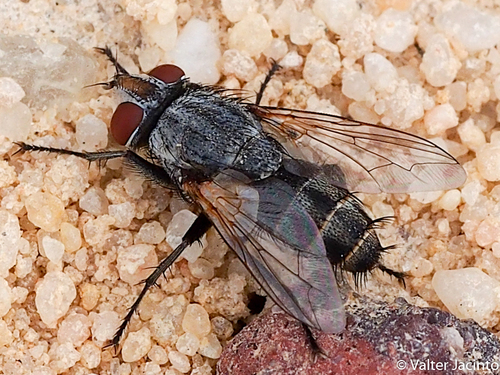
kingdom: Animalia
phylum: Arthropoda
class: Insecta
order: Diptera
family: Sarcophagidae
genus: Senotainia
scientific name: Senotainia tricuspis
